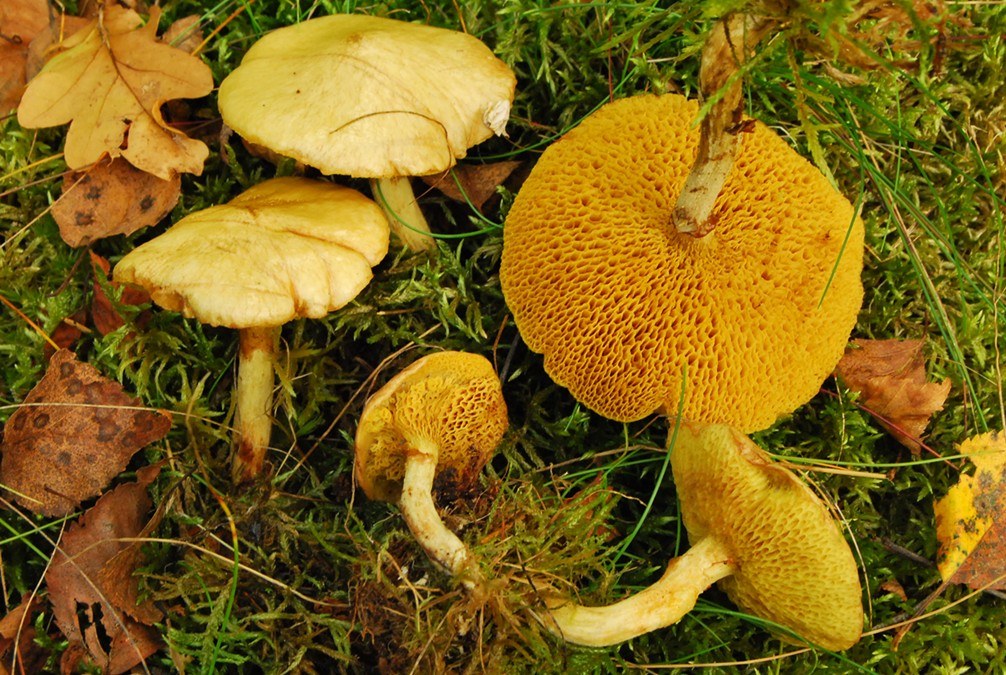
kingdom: Fungi
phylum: Basidiomycota
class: Agaricomycetes
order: Boletales
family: Suillaceae
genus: Suillus
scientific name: Suillus flavidus
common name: mose-slimrørhat
